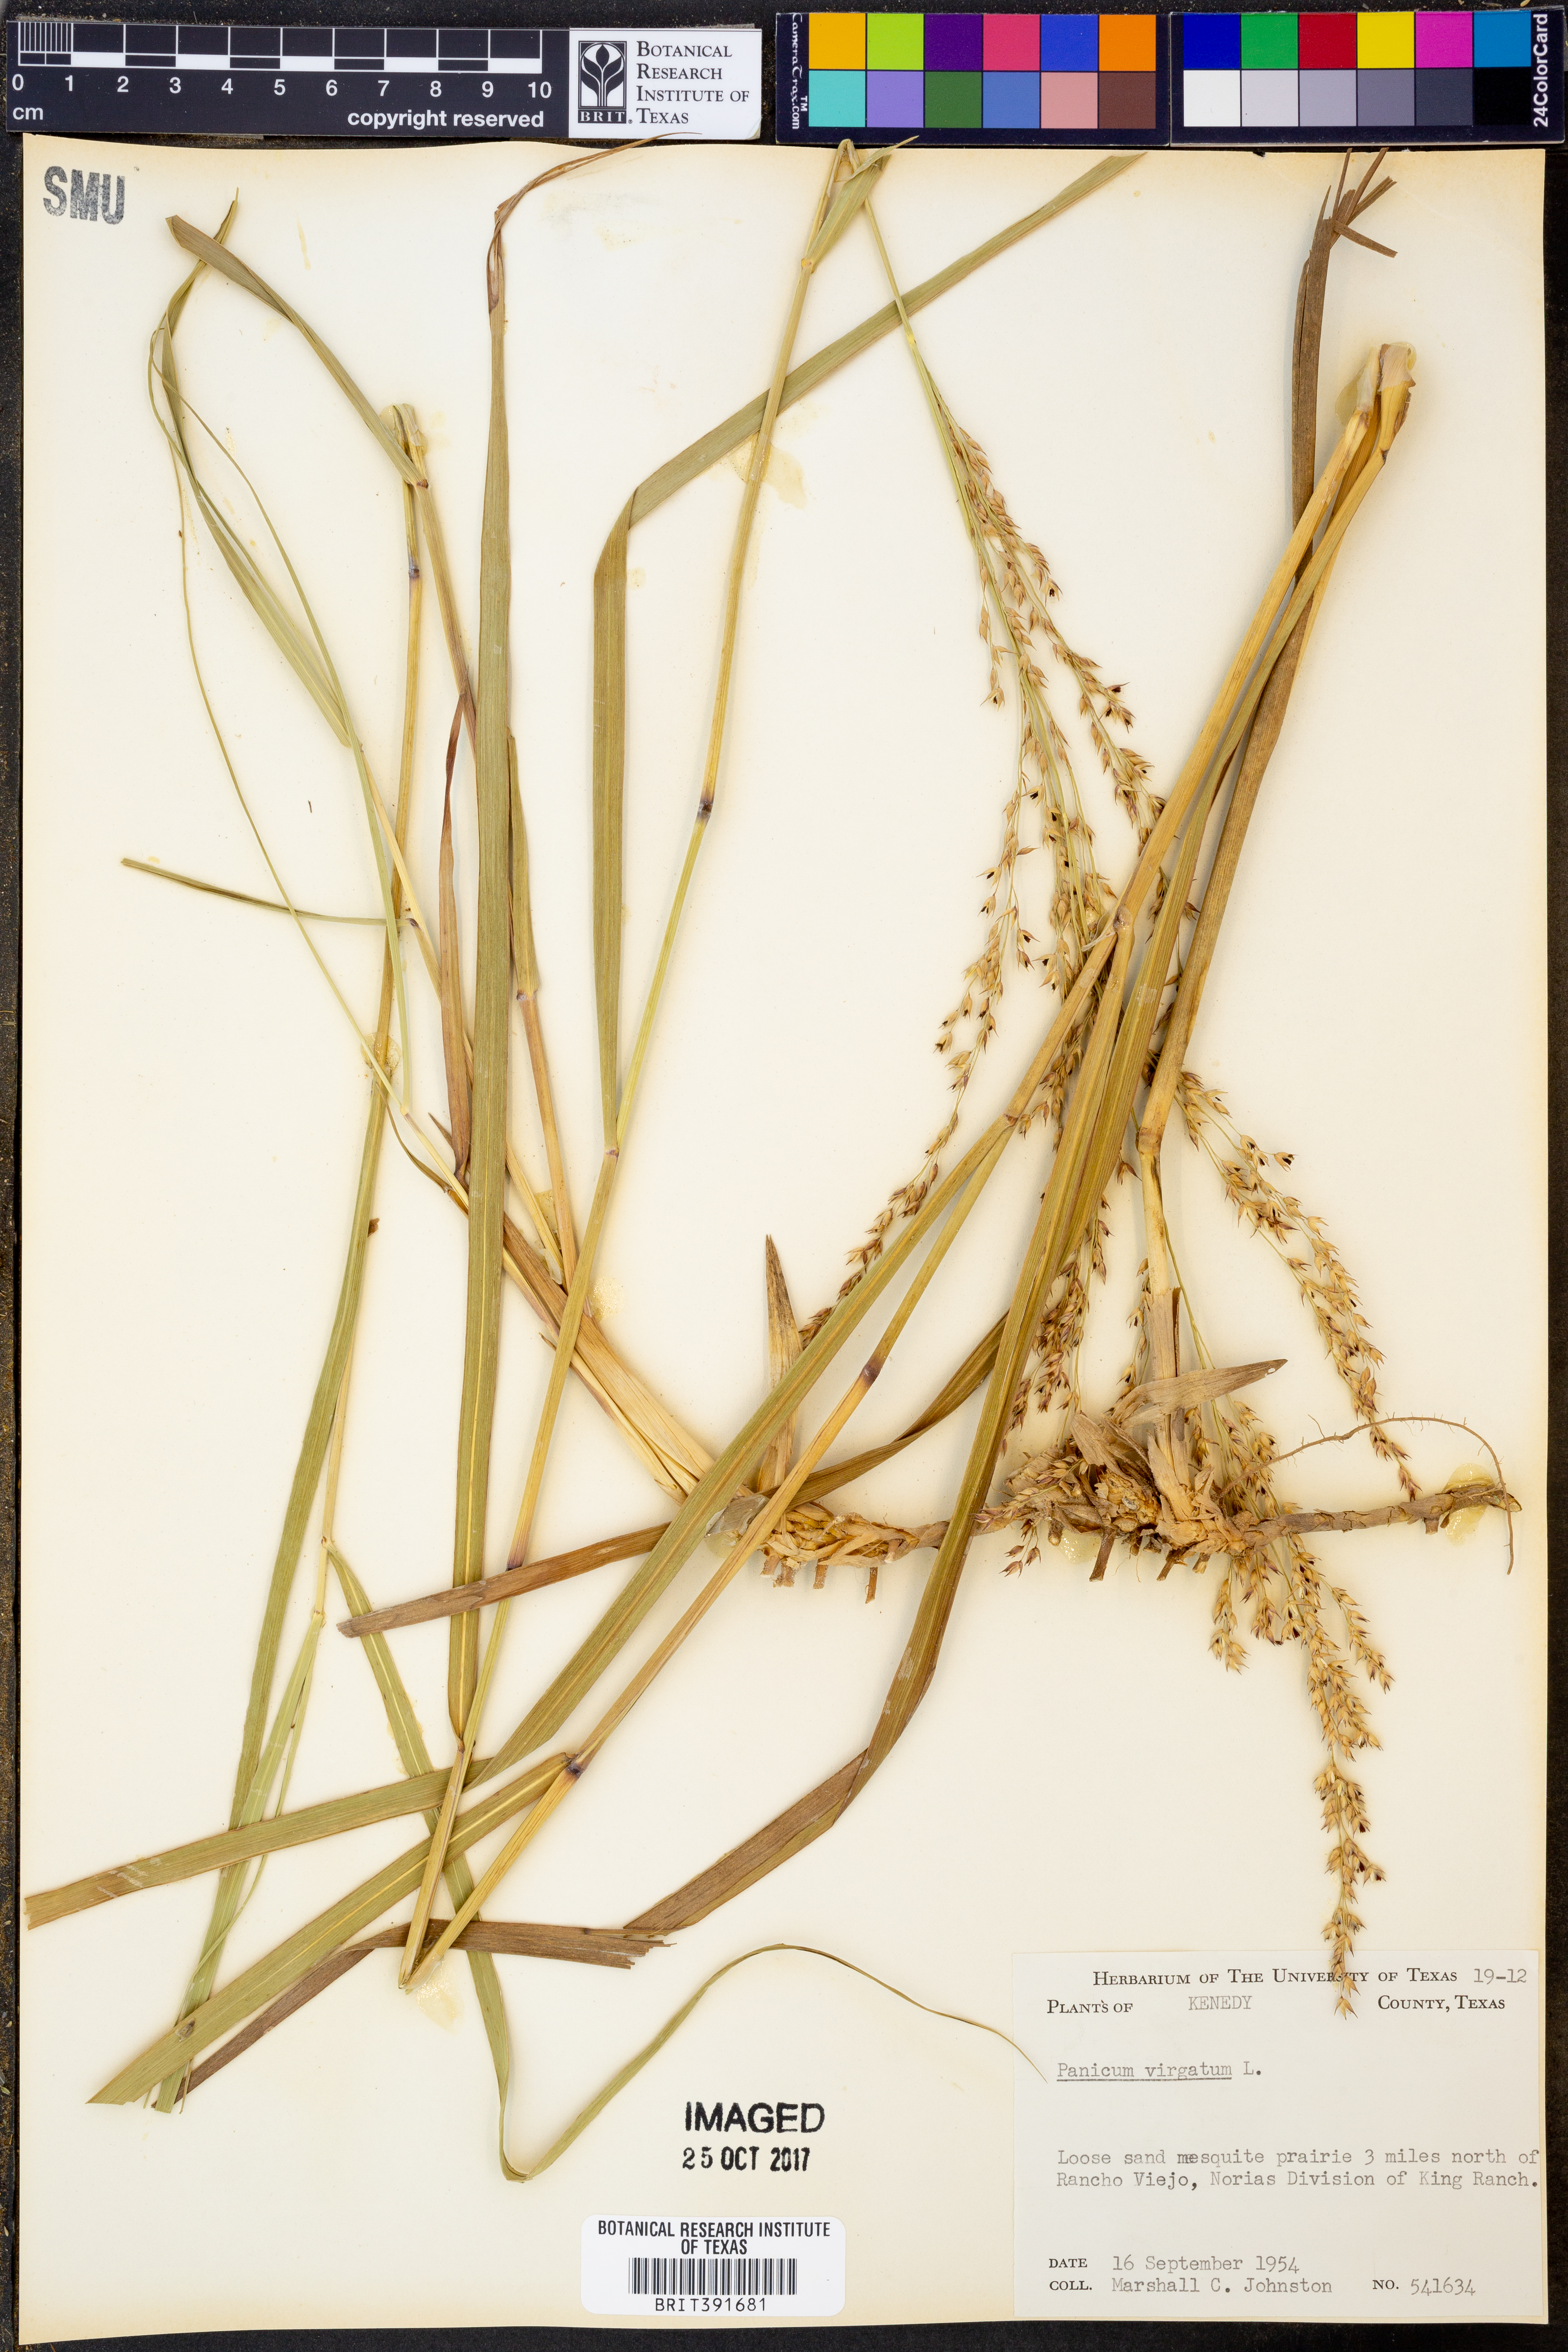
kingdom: Plantae
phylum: Tracheophyta
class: Liliopsida
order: Poales
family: Poaceae
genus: Panicum
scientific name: Panicum virgatum
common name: Switchgrass
